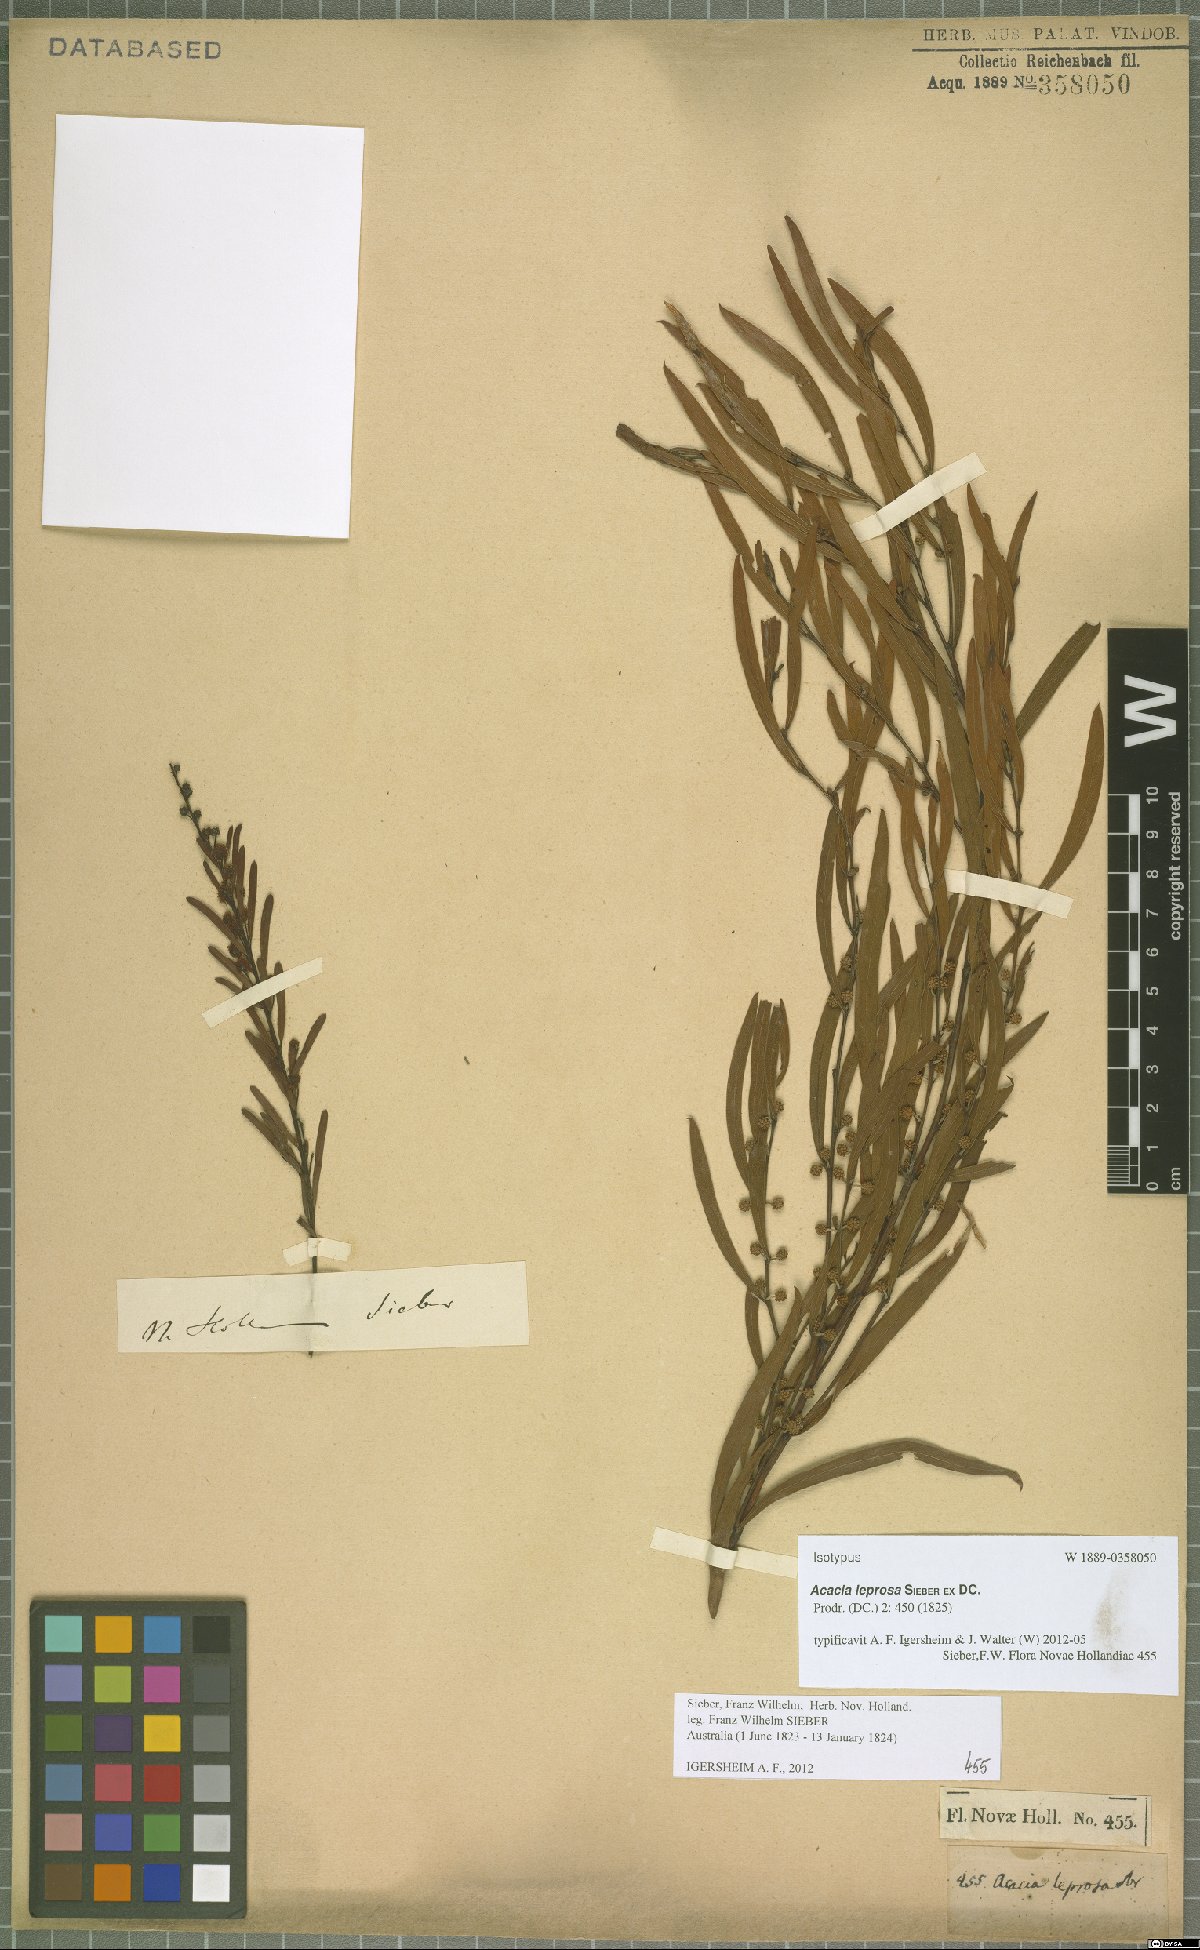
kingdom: Plantae
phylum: Tracheophyta
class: Magnoliopsida
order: Fabales
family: Fabaceae
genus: Acacia
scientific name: Acacia leprosa
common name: Cinnamon wattle
